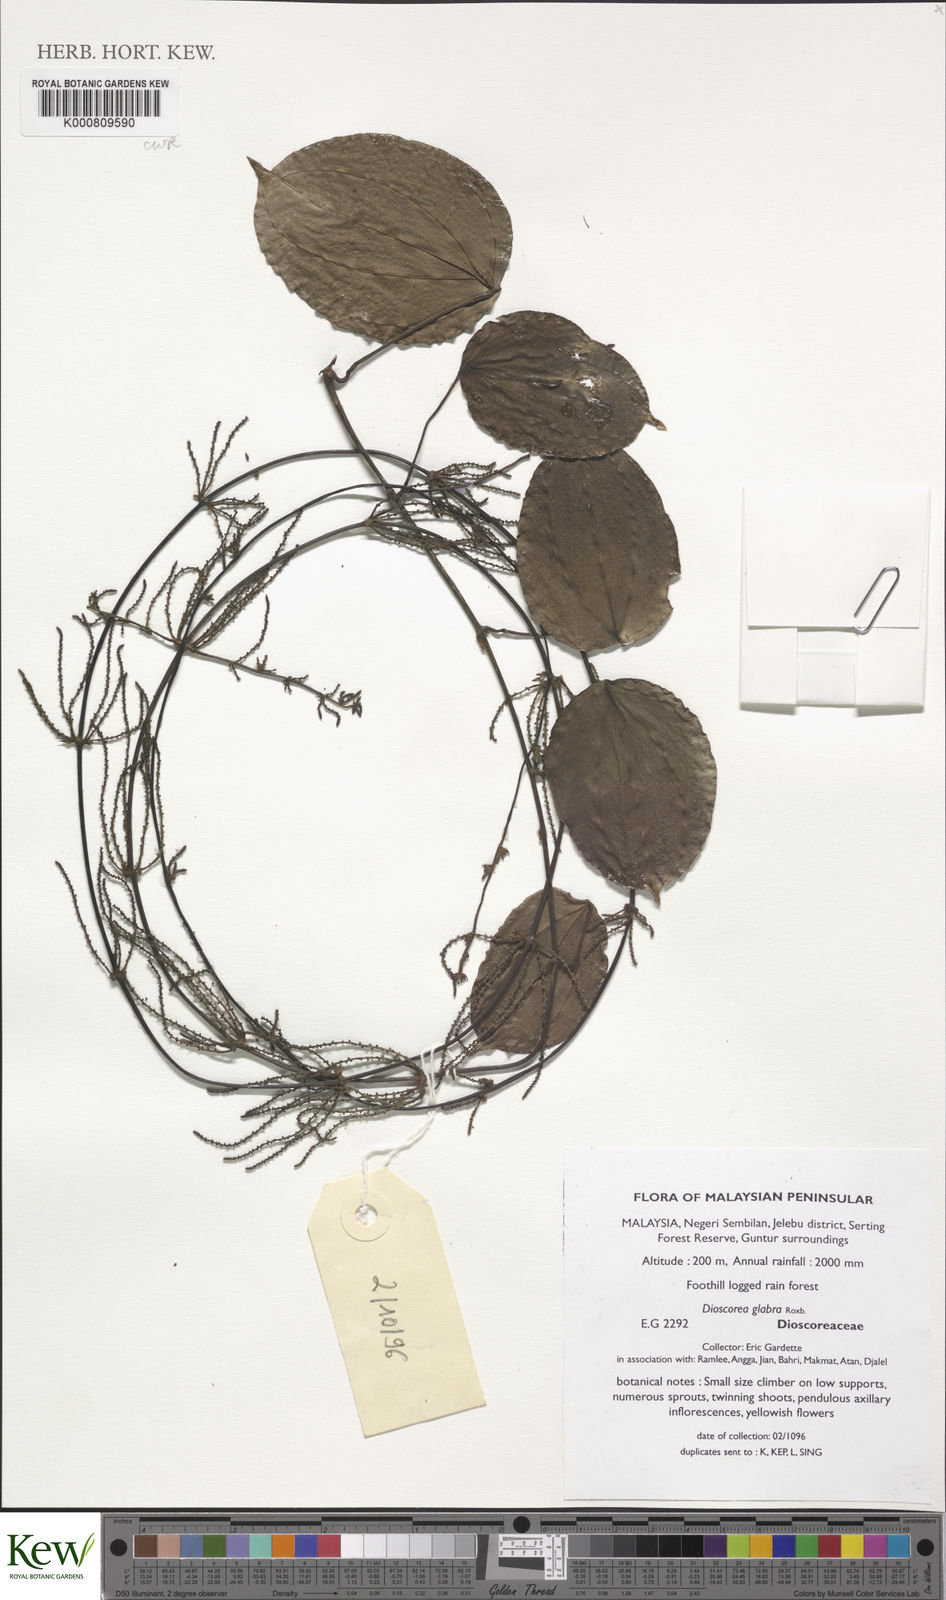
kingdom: Plantae
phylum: Tracheophyta
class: Liliopsida
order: Dioscoreales
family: Dioscoreaceae
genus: Dioscorea
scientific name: Dioscorea glabra
